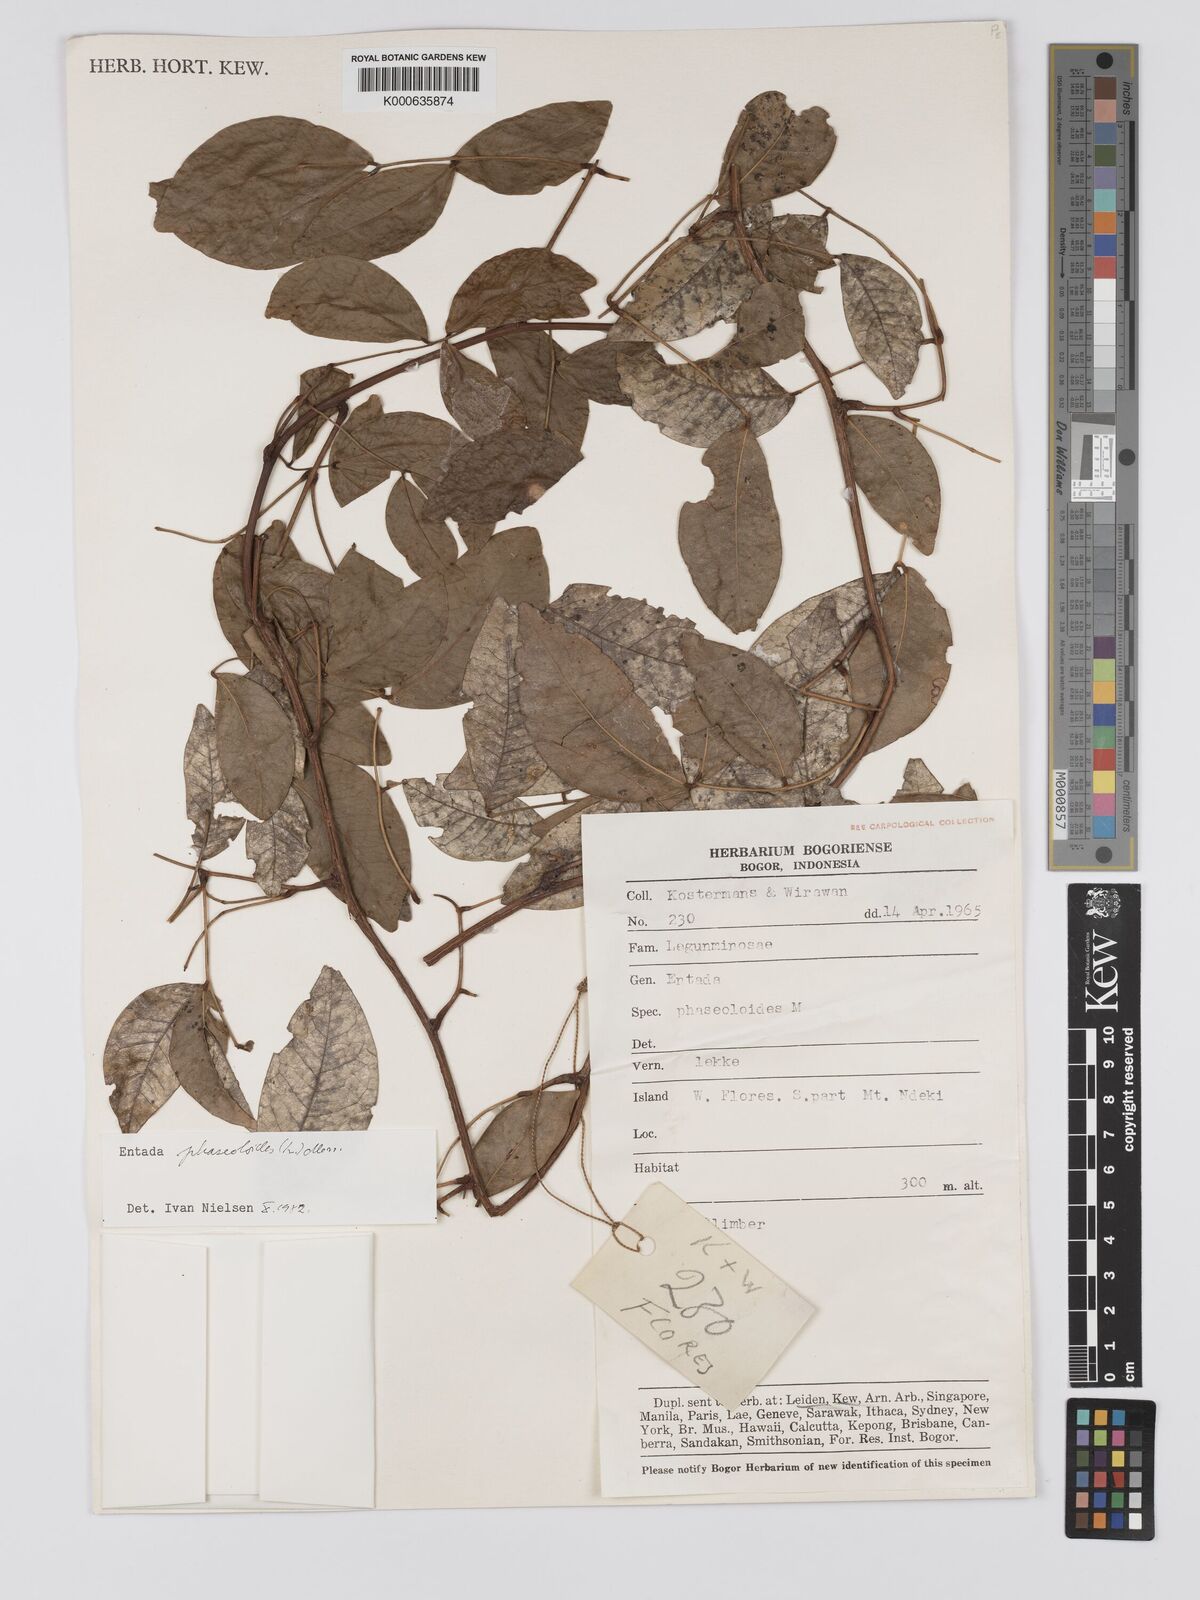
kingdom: Plantae
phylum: Tracheophyta
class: Magnoliopsida
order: Fabales
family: Fabaceae
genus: Entada
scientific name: Entada phaseoloides
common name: Matchbox-bean
